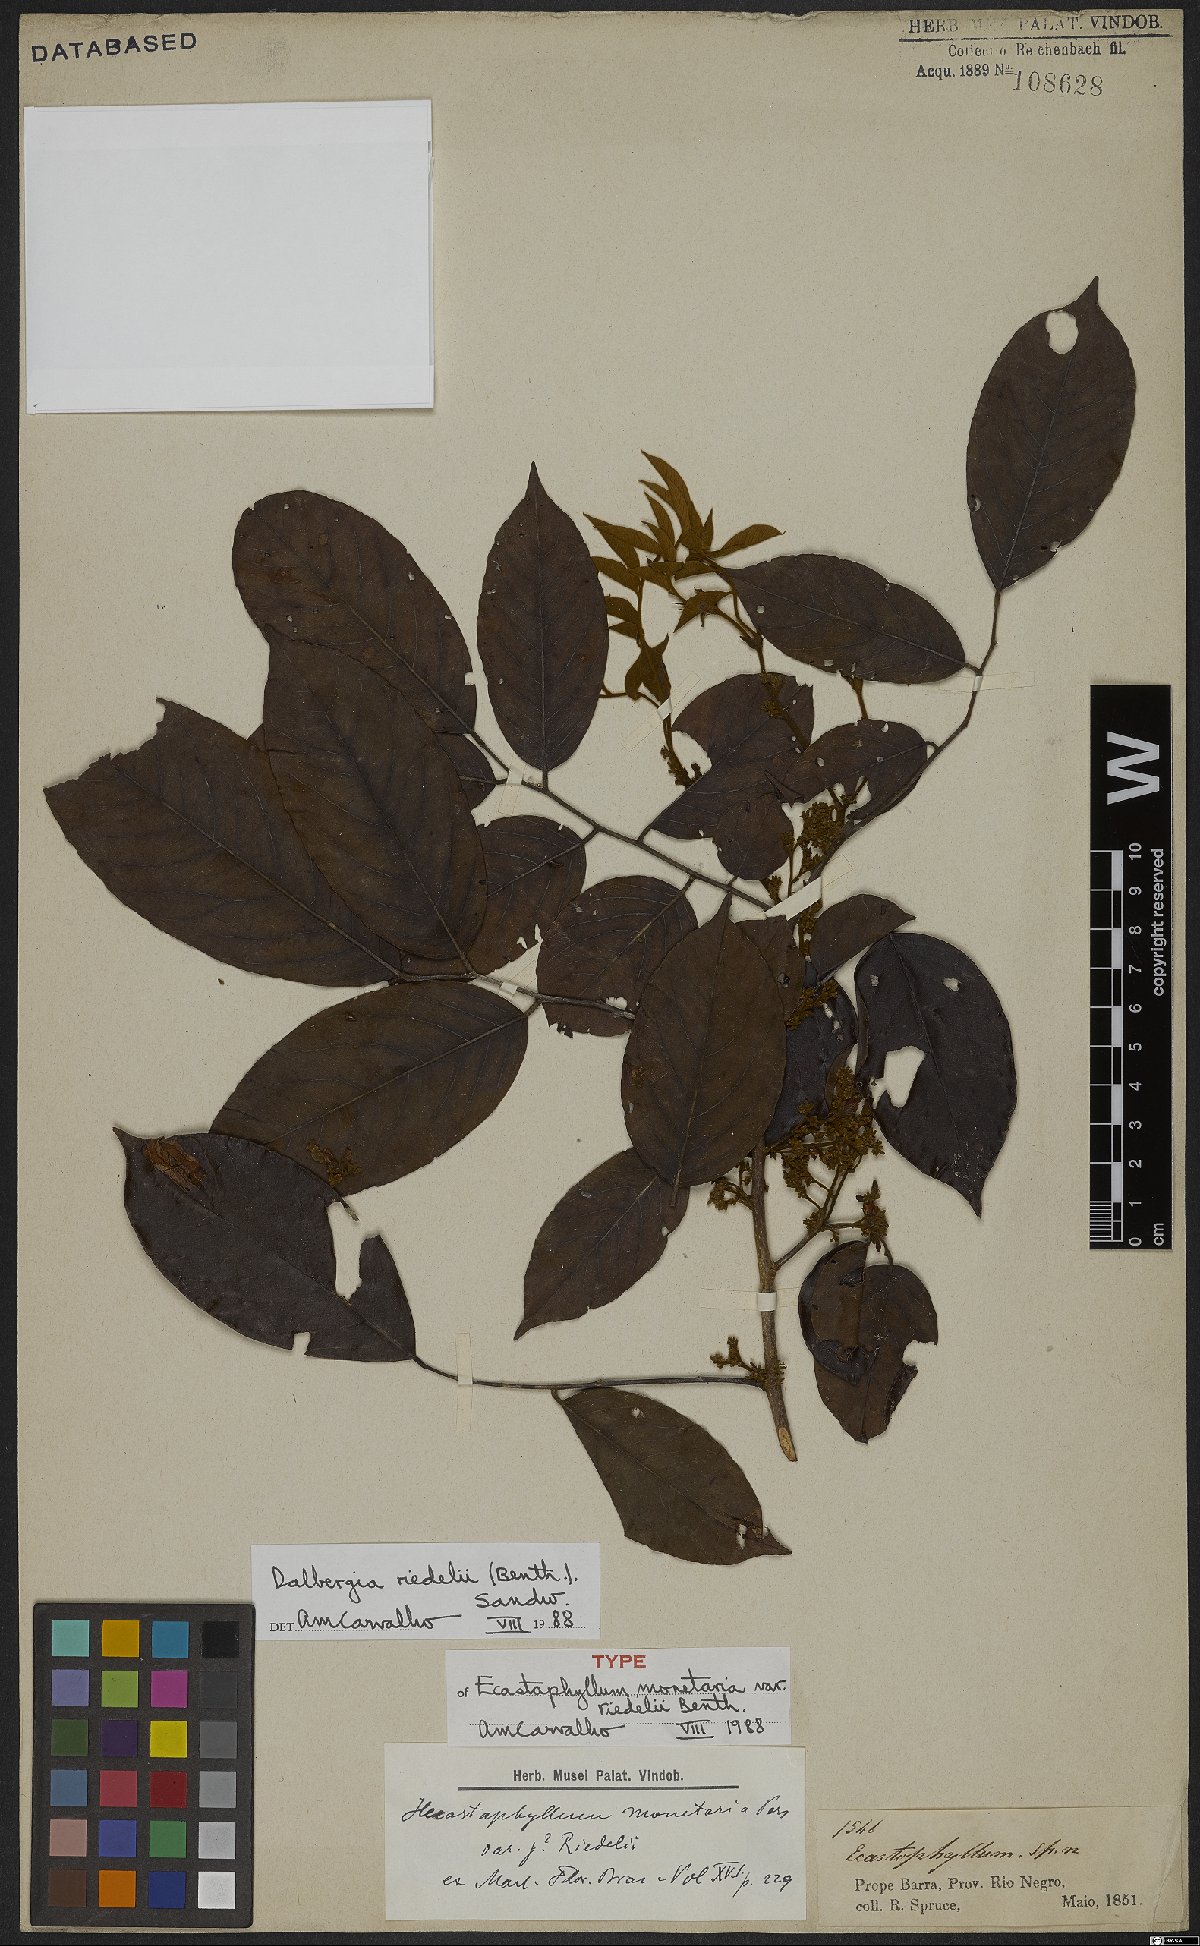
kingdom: Plantae
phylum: Tracheophyta
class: Magnoliopsida
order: Fabales
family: Fabaceae
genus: Dalbergia
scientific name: Dalbergia riedelii
